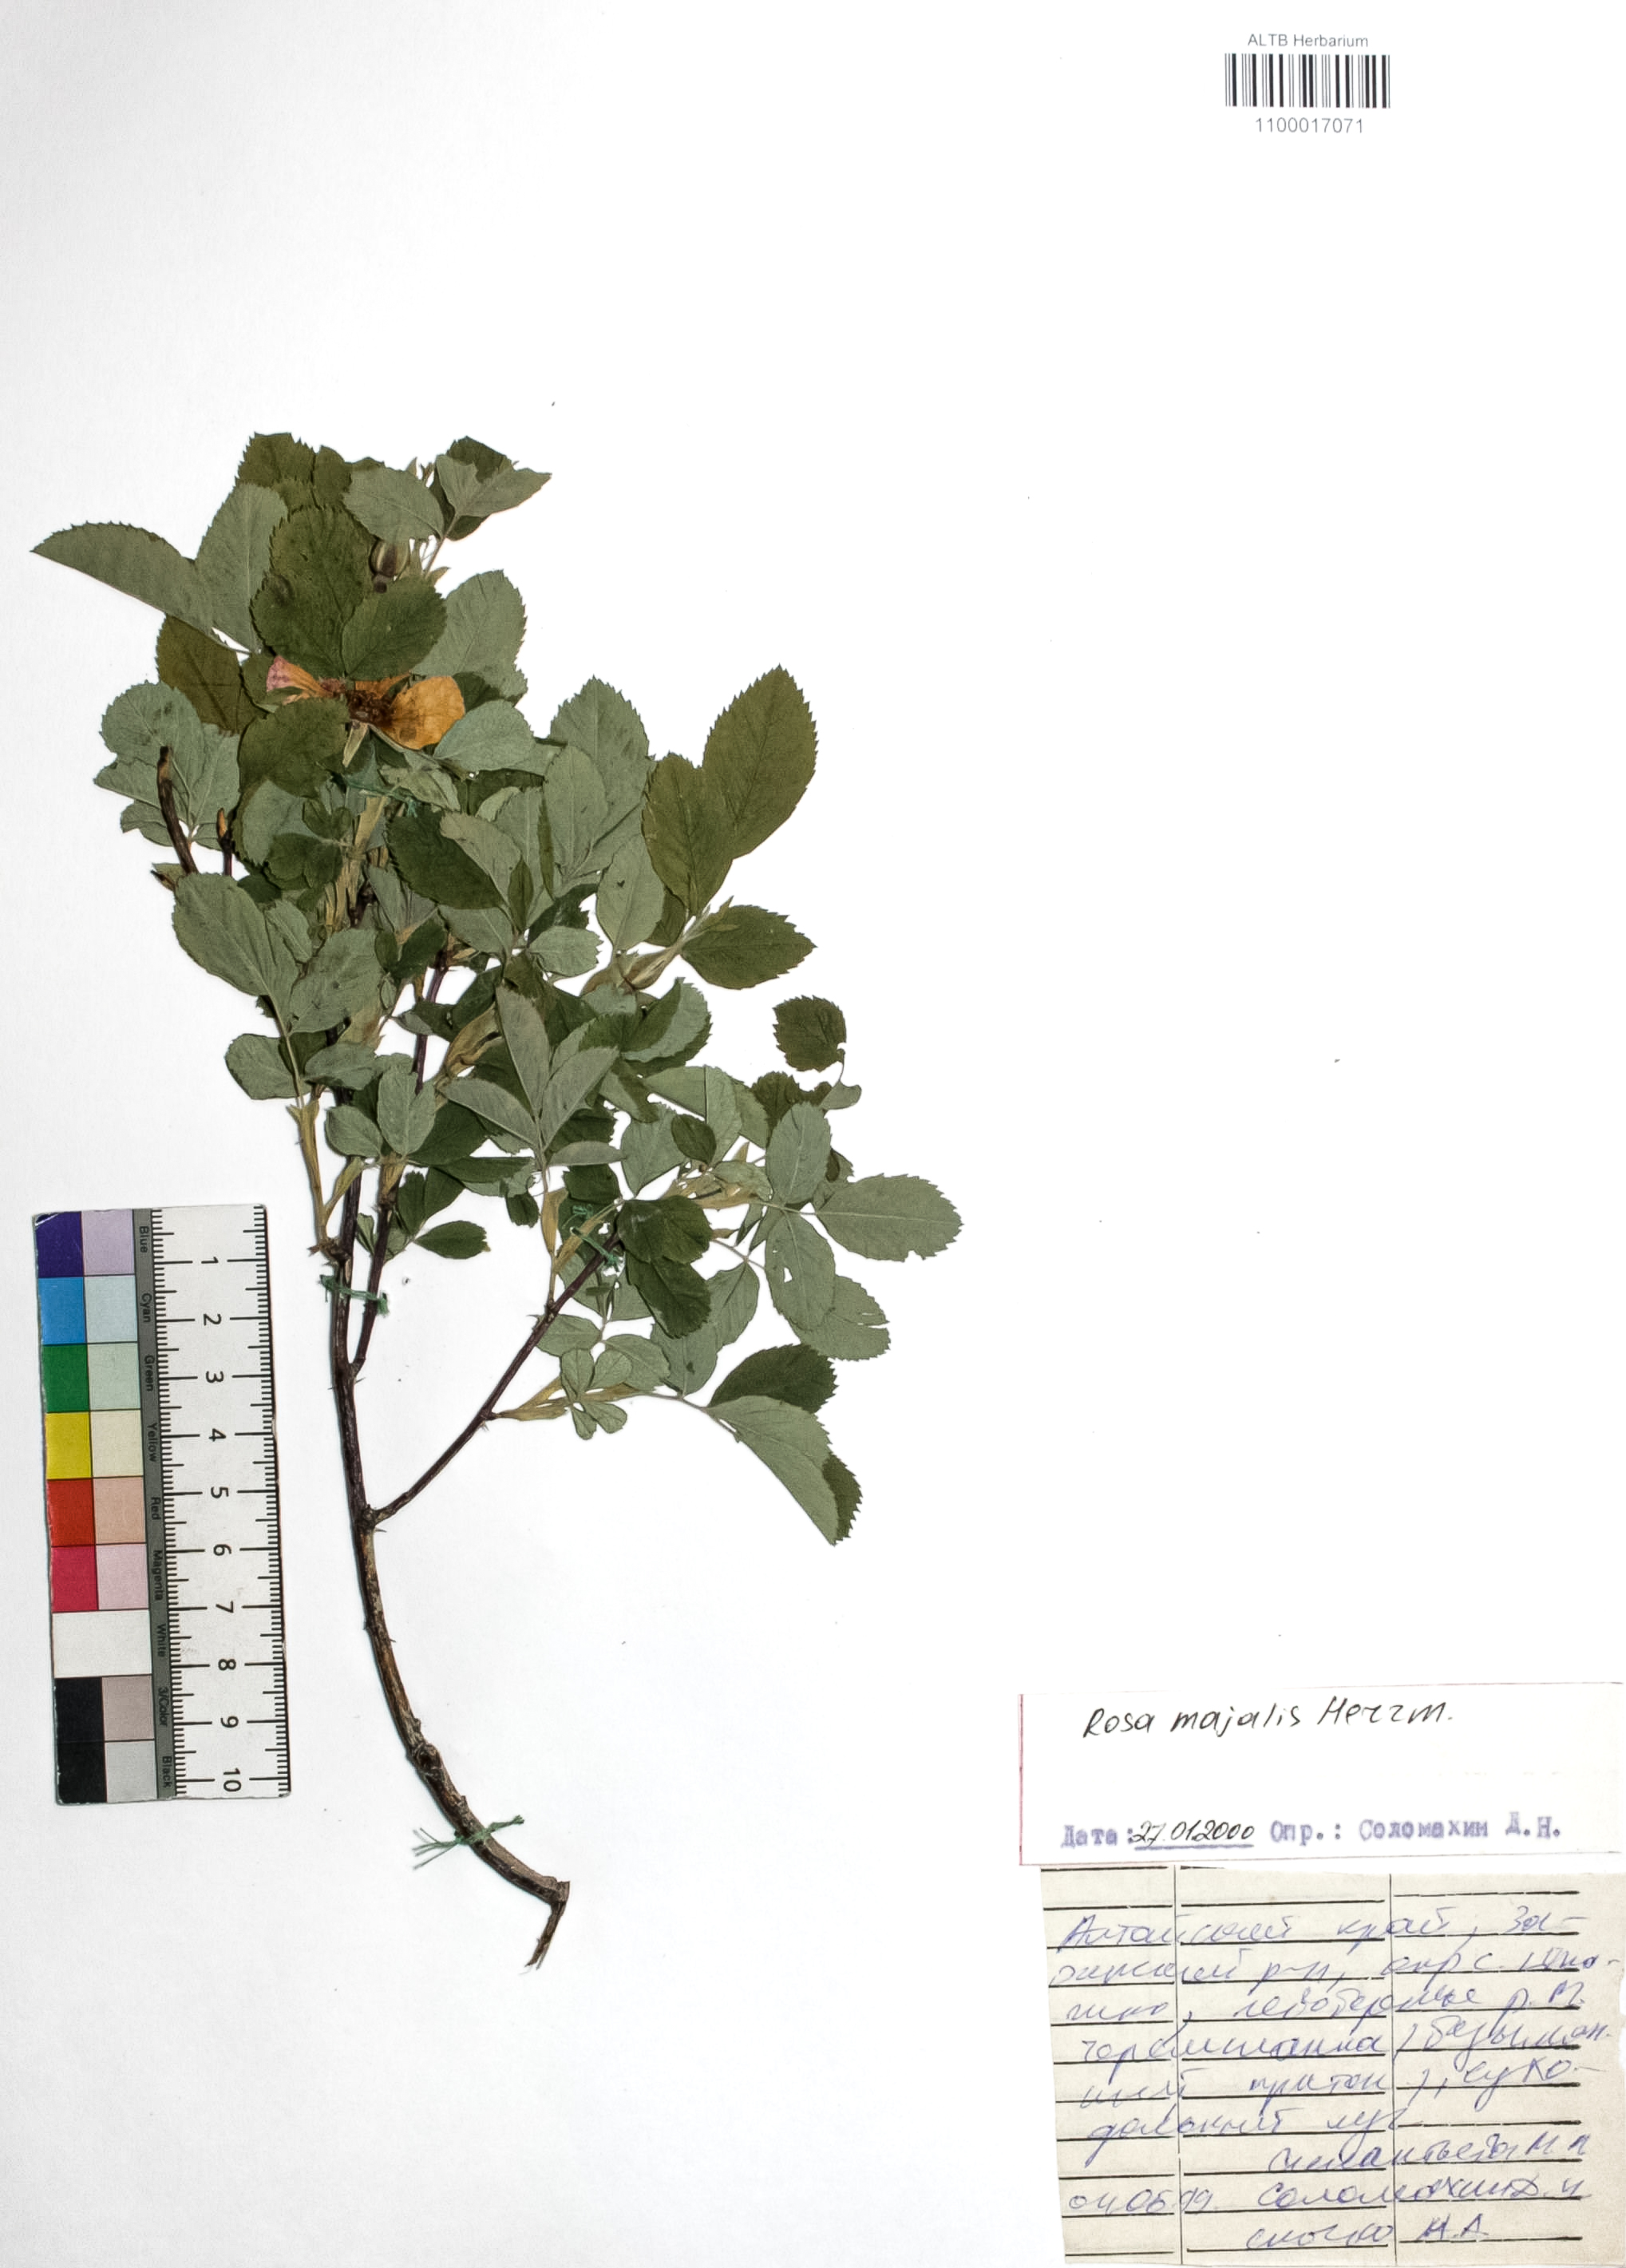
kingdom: Plantae
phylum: Tracheophyta
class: Magnoliopsida
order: Rosales
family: Rosaceae
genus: Rosa
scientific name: Rosa majalis
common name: Cinnamon rose
